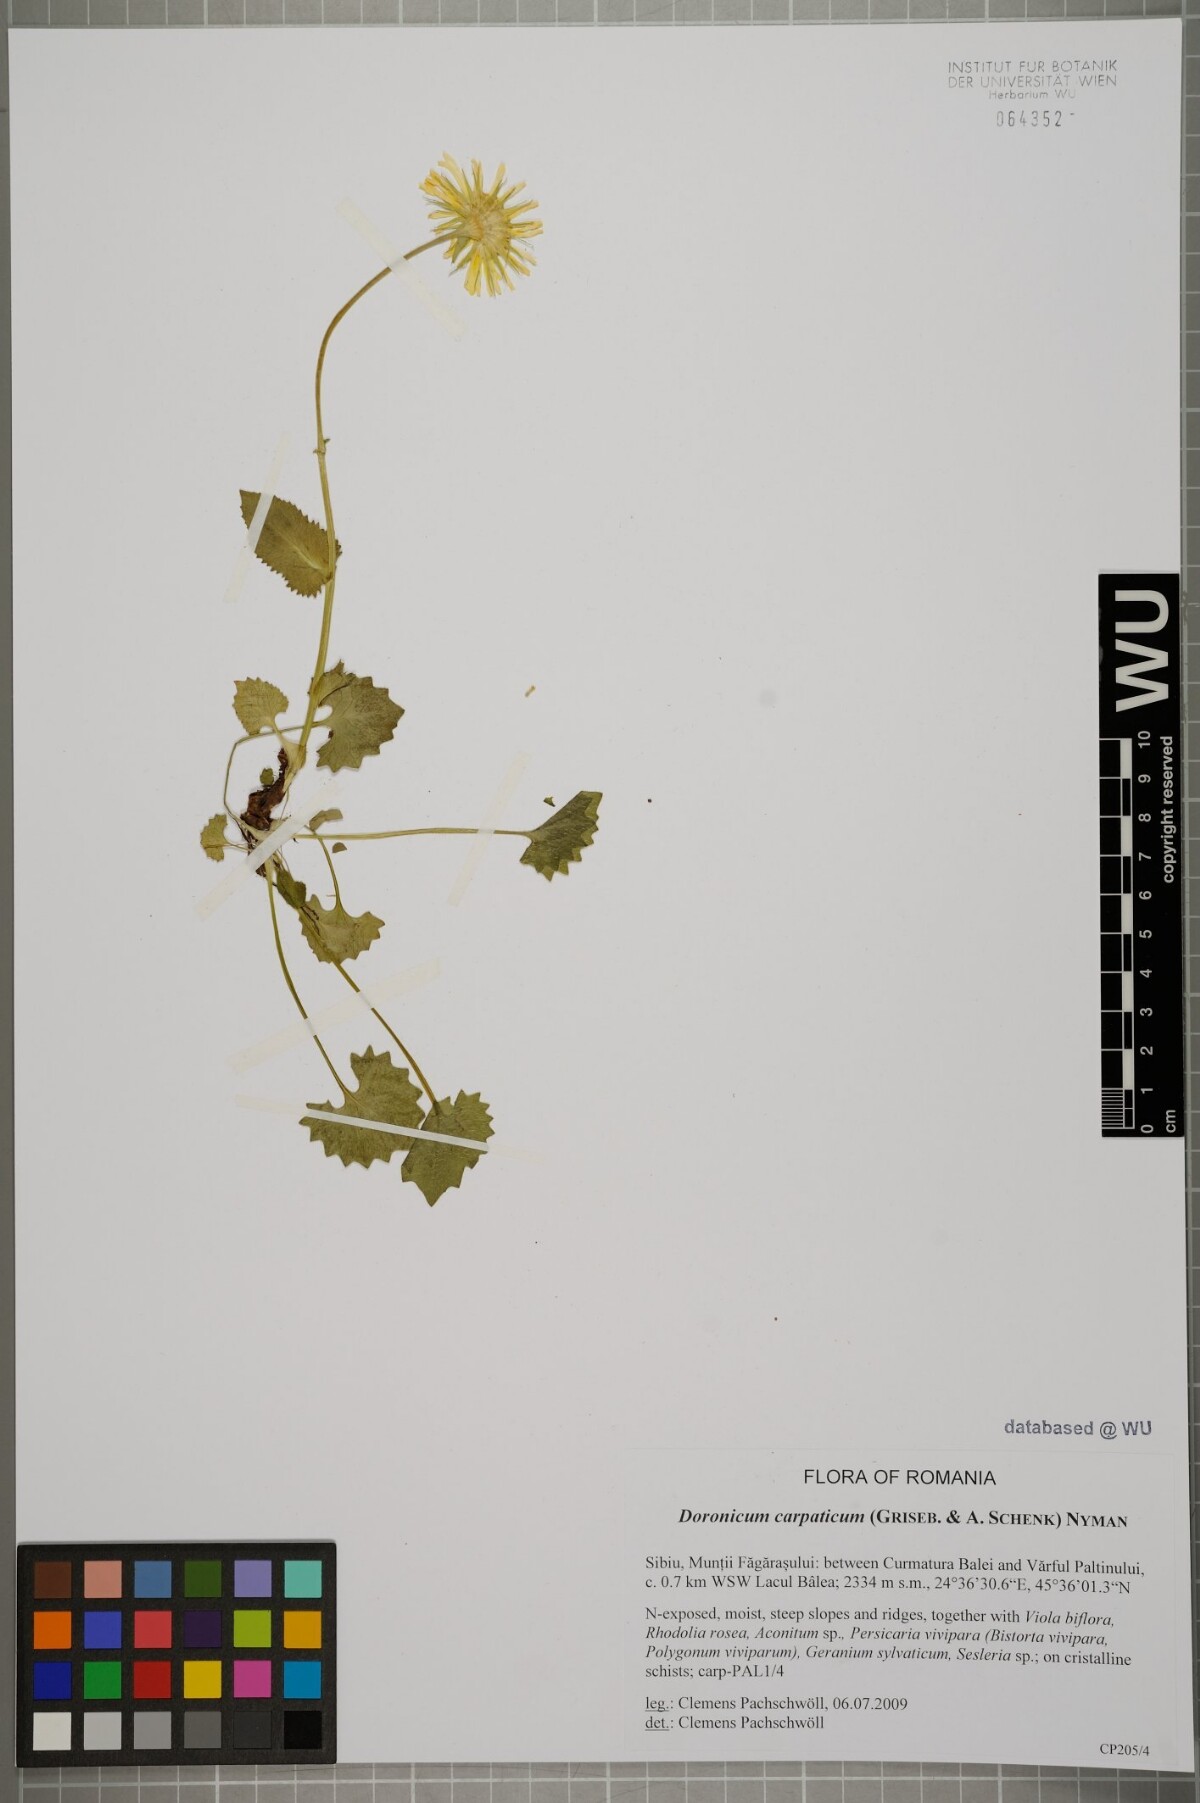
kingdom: Plantae
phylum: Tracheophyta
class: Magnoliopsida
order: Asterales
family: Asteraceae
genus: Doronicum
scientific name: Doronicum carpaticum
